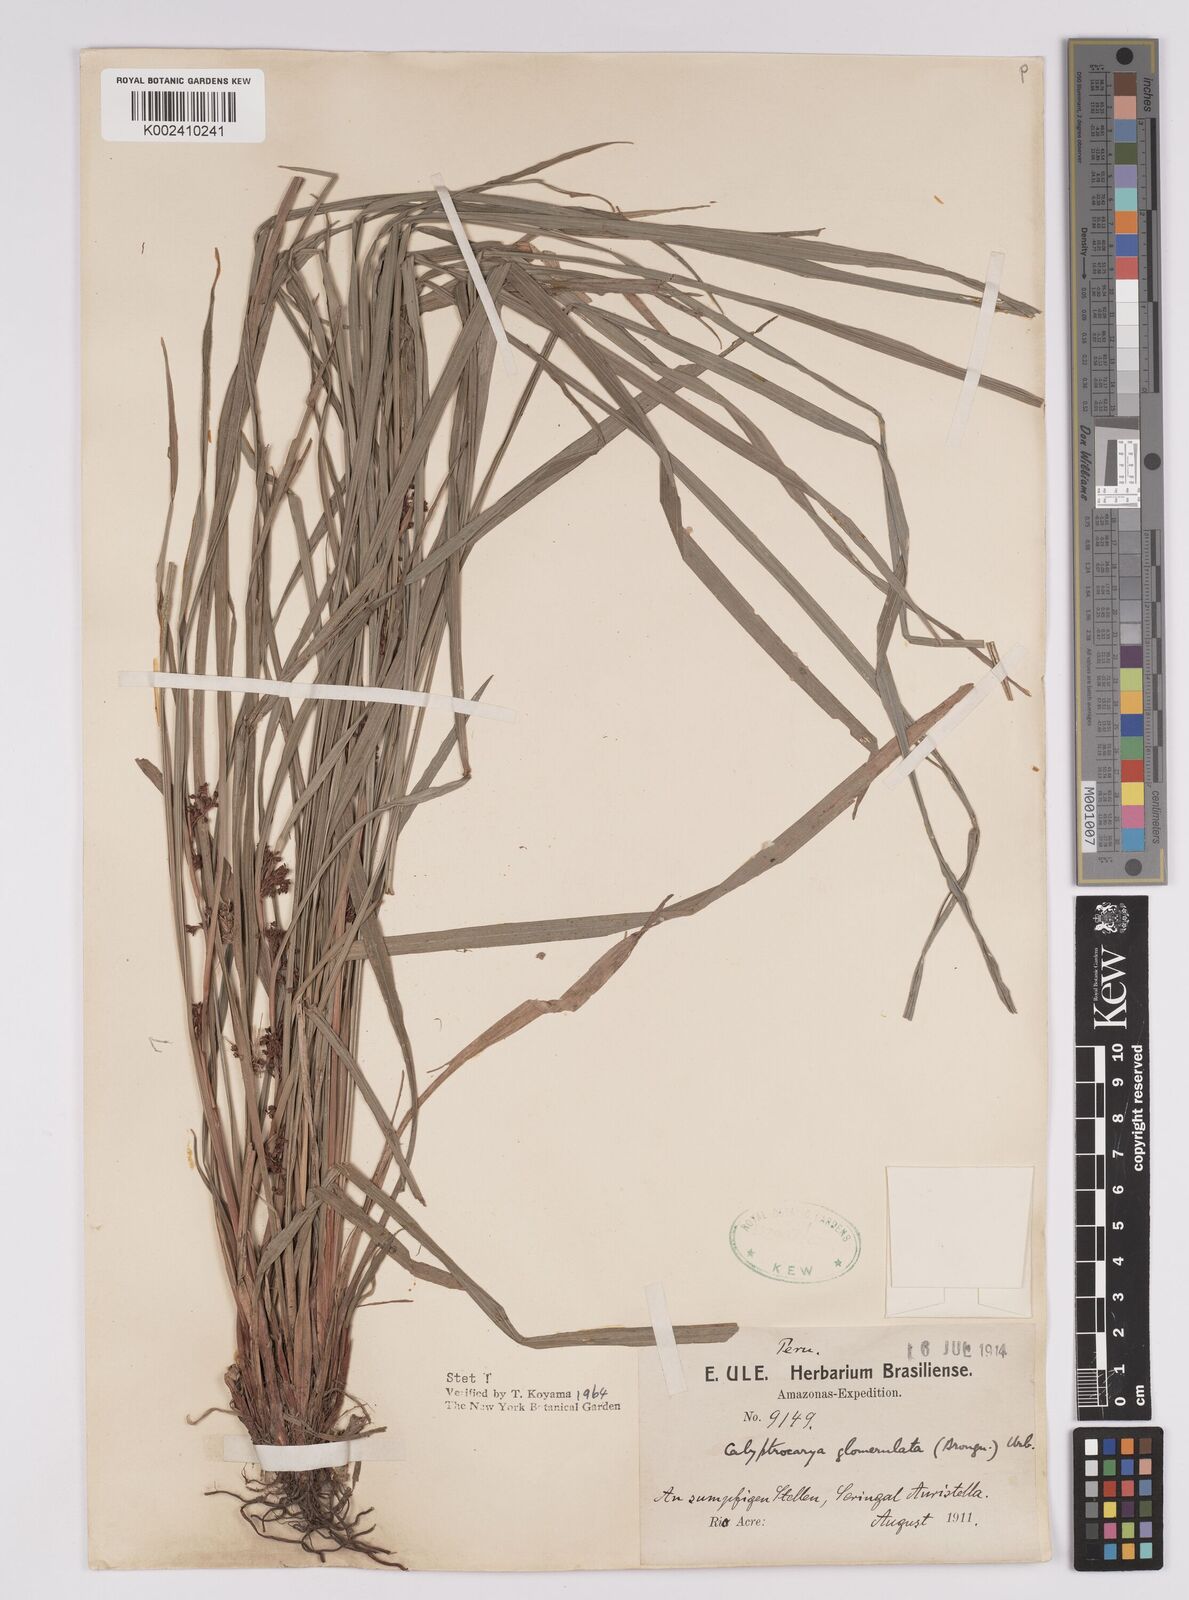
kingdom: Plantae
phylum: Tracheophyta
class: Liliopsida
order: Poales
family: Cyperaceae
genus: Calyptrocarya
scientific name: Calyptrocarya glomerulata
